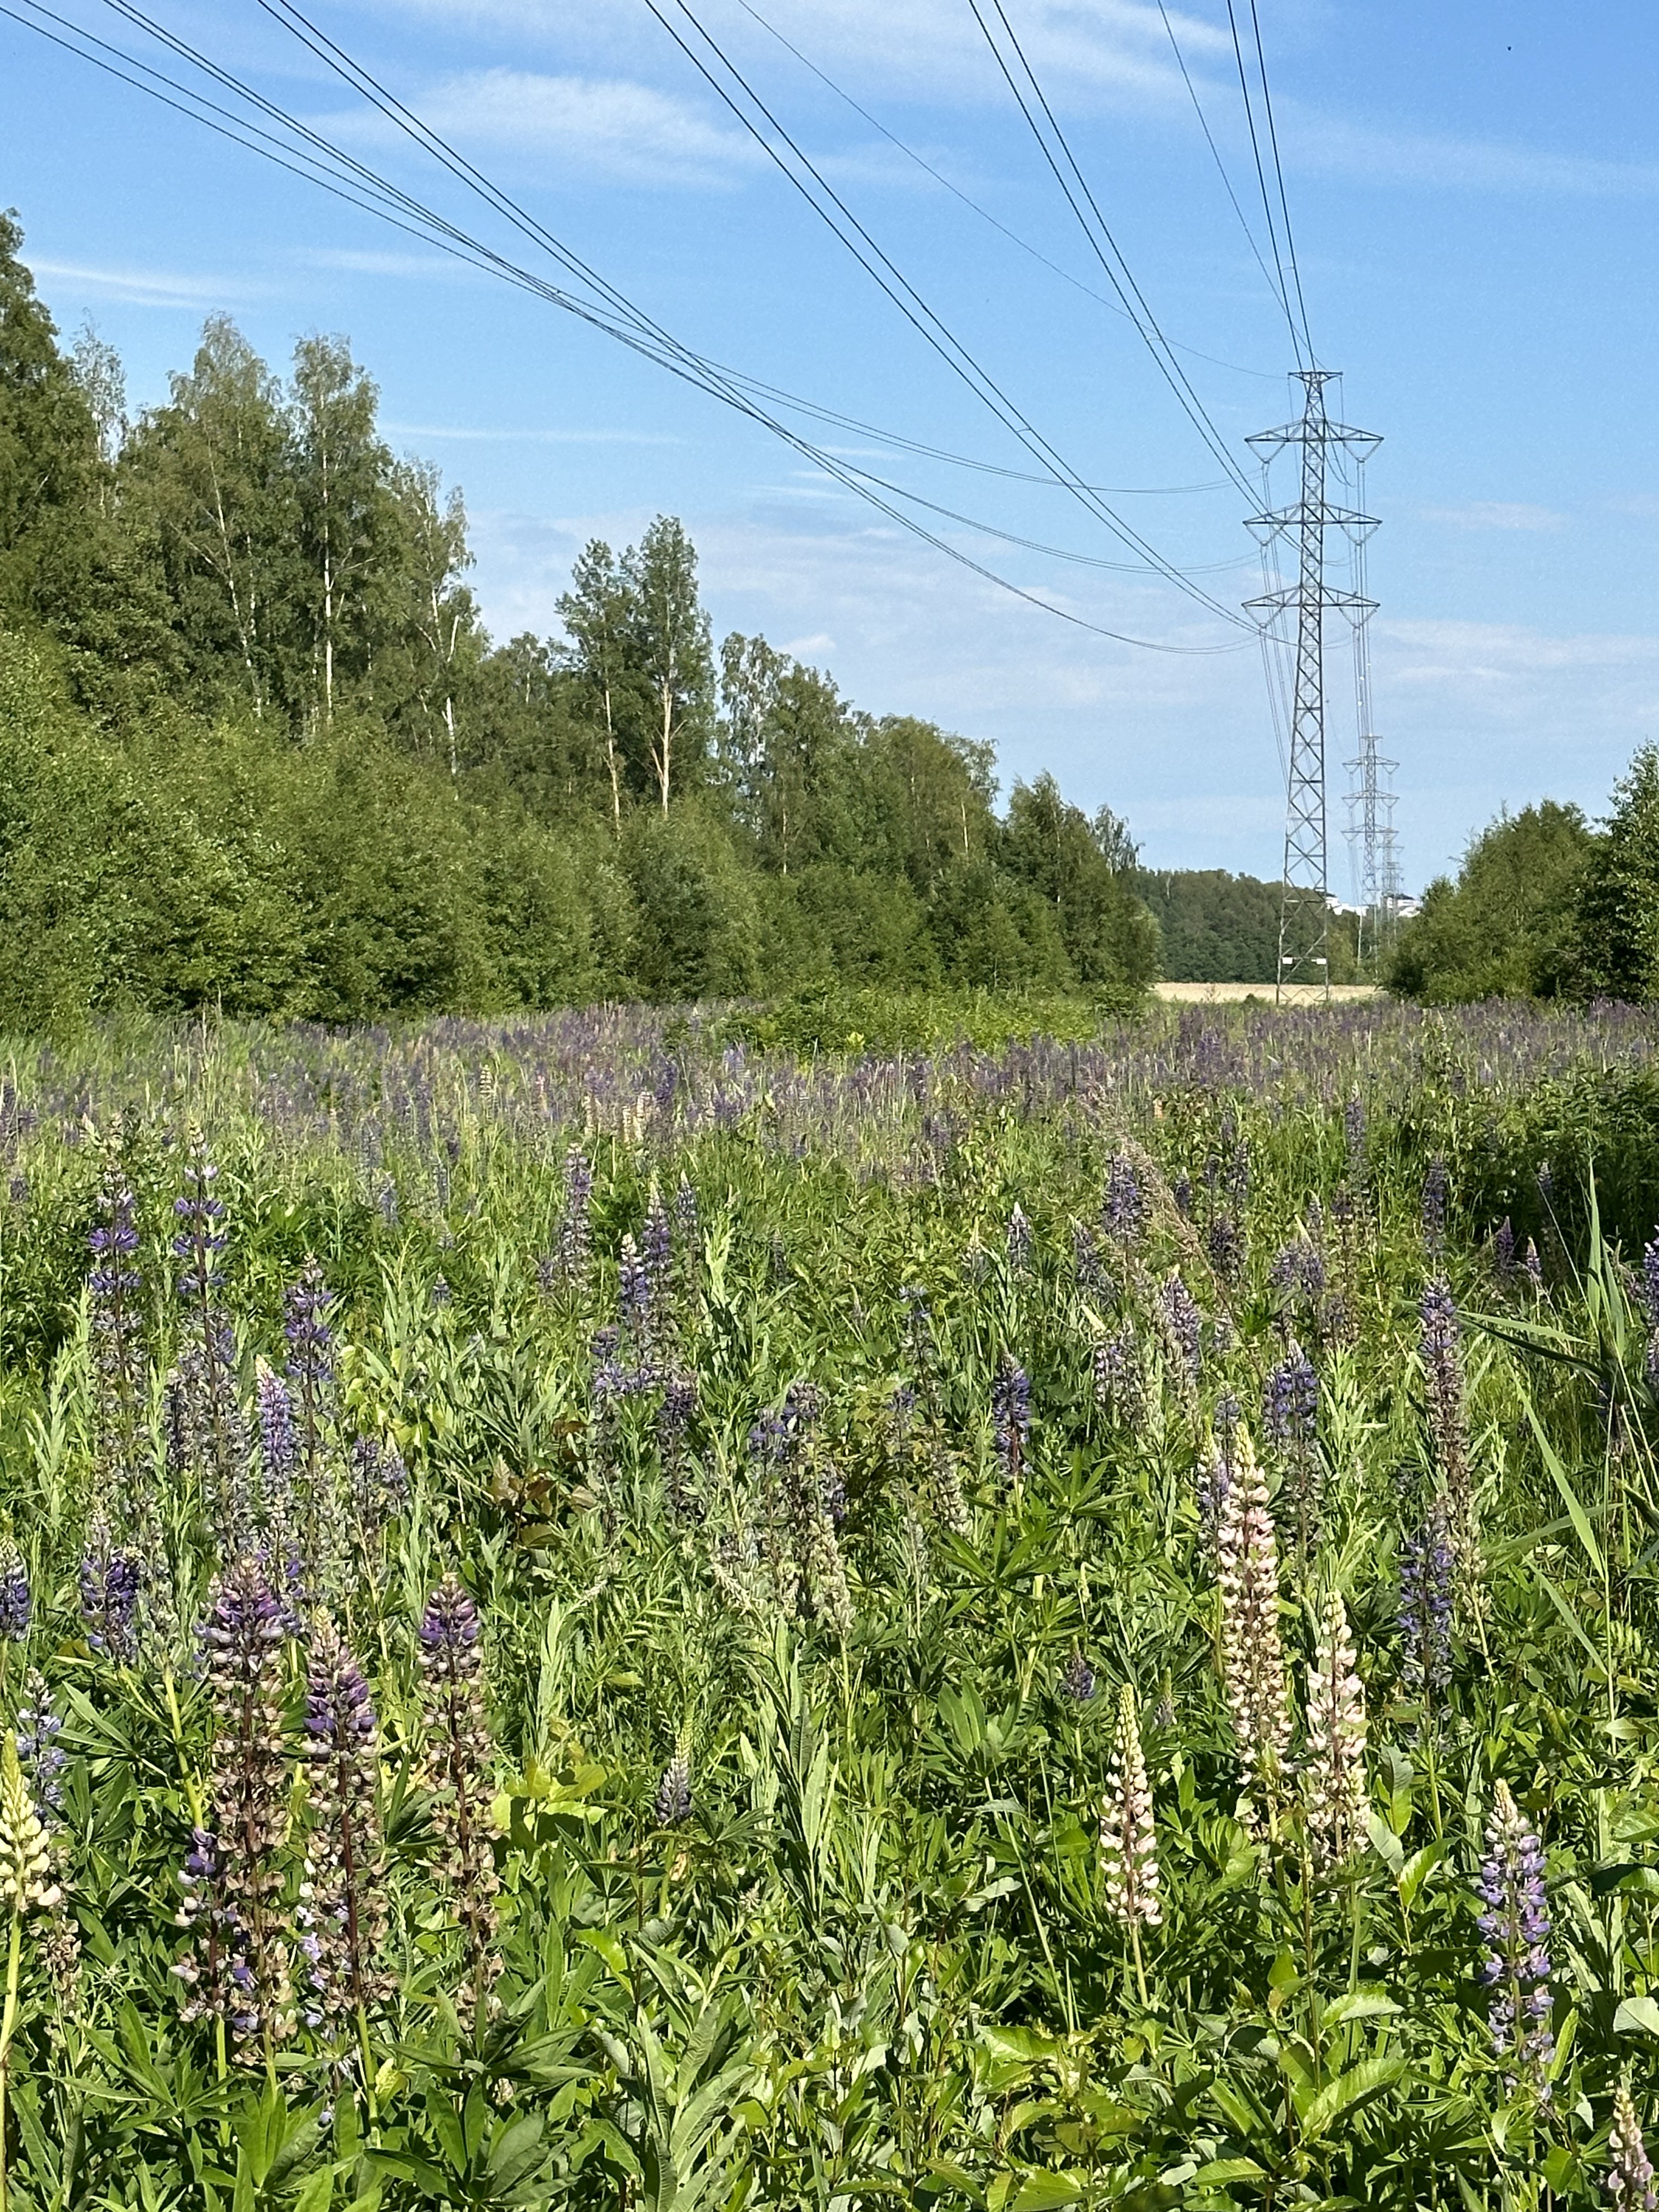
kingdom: Plantae
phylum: Tracheophyta
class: Magnoliopsida
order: Fabales
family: Fabaceae
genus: Lupinus
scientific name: Lupinus polyphyllus
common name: Garden lupin
